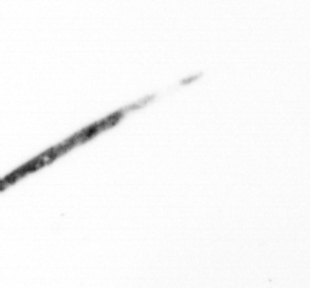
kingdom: Chromista
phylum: Ochrophyta
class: Bacillariophyceae
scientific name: Bacillariophyceae
